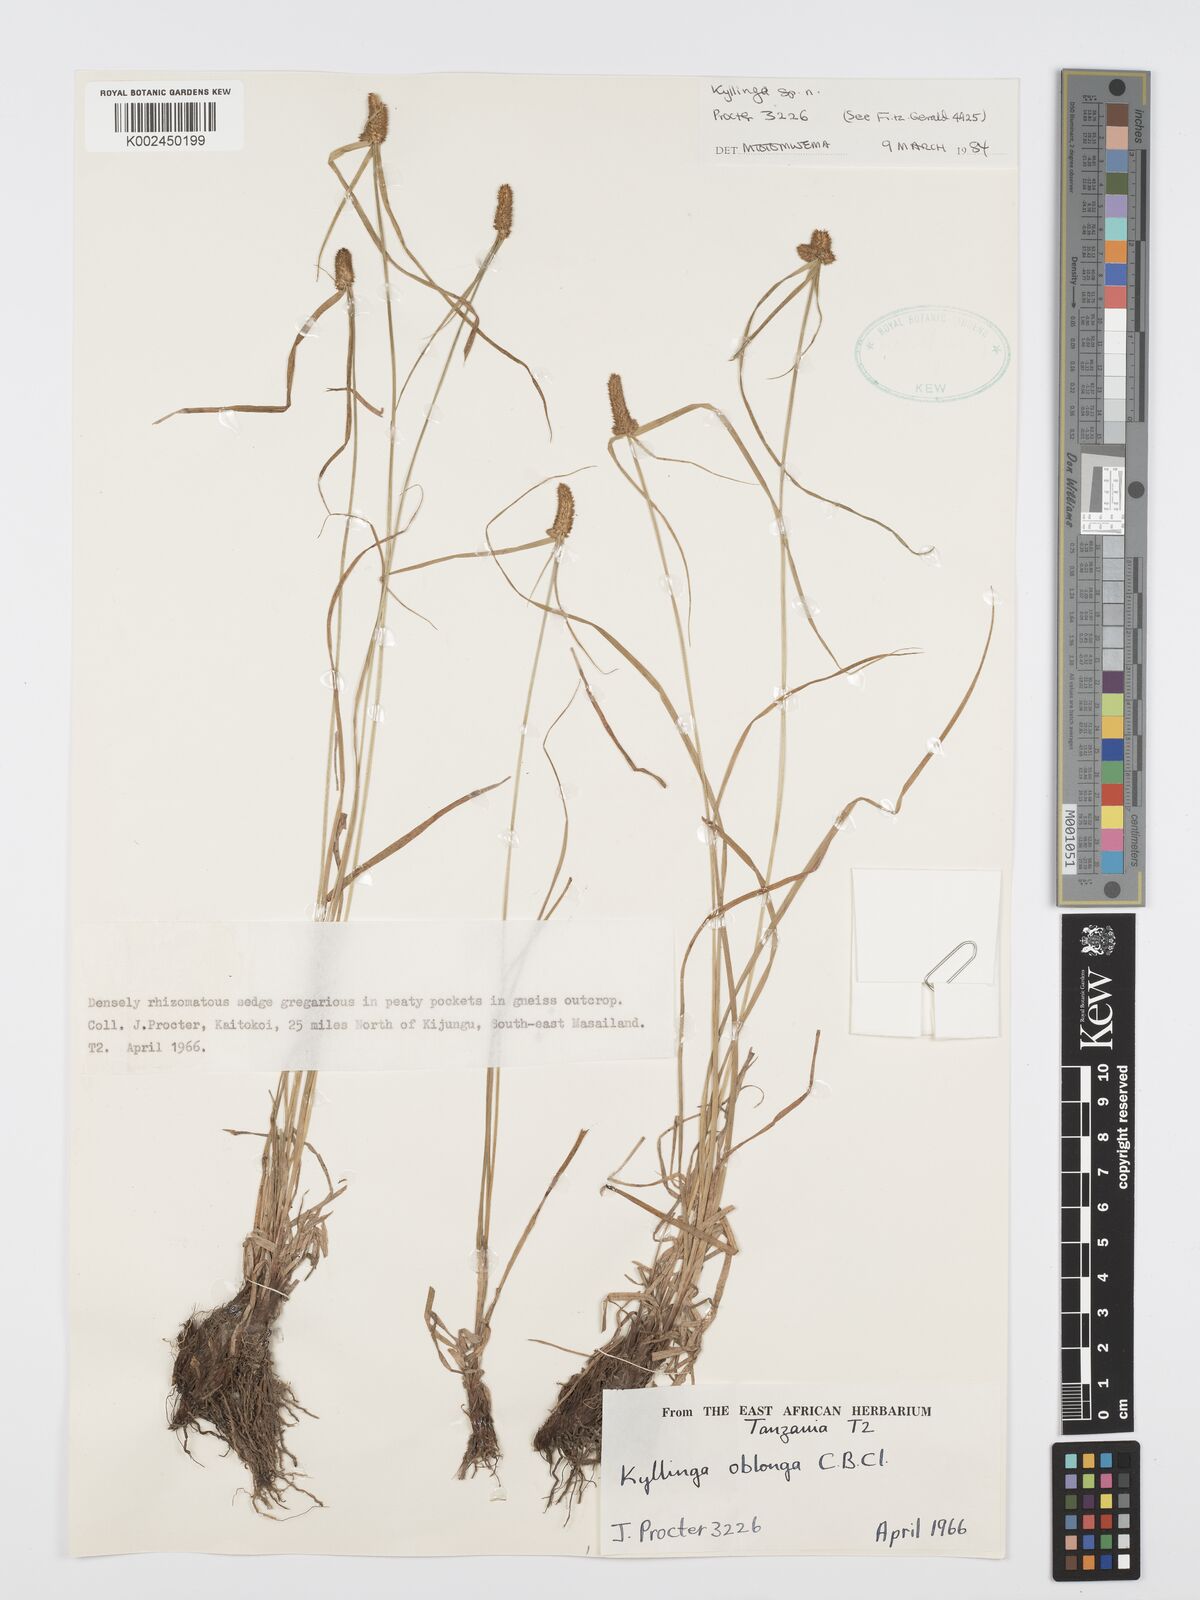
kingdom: Plantae
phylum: Tracheophyta
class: Liliopsida
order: Poales
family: Cyperaceae
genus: Cyperus
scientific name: Cyperus nyikanus
